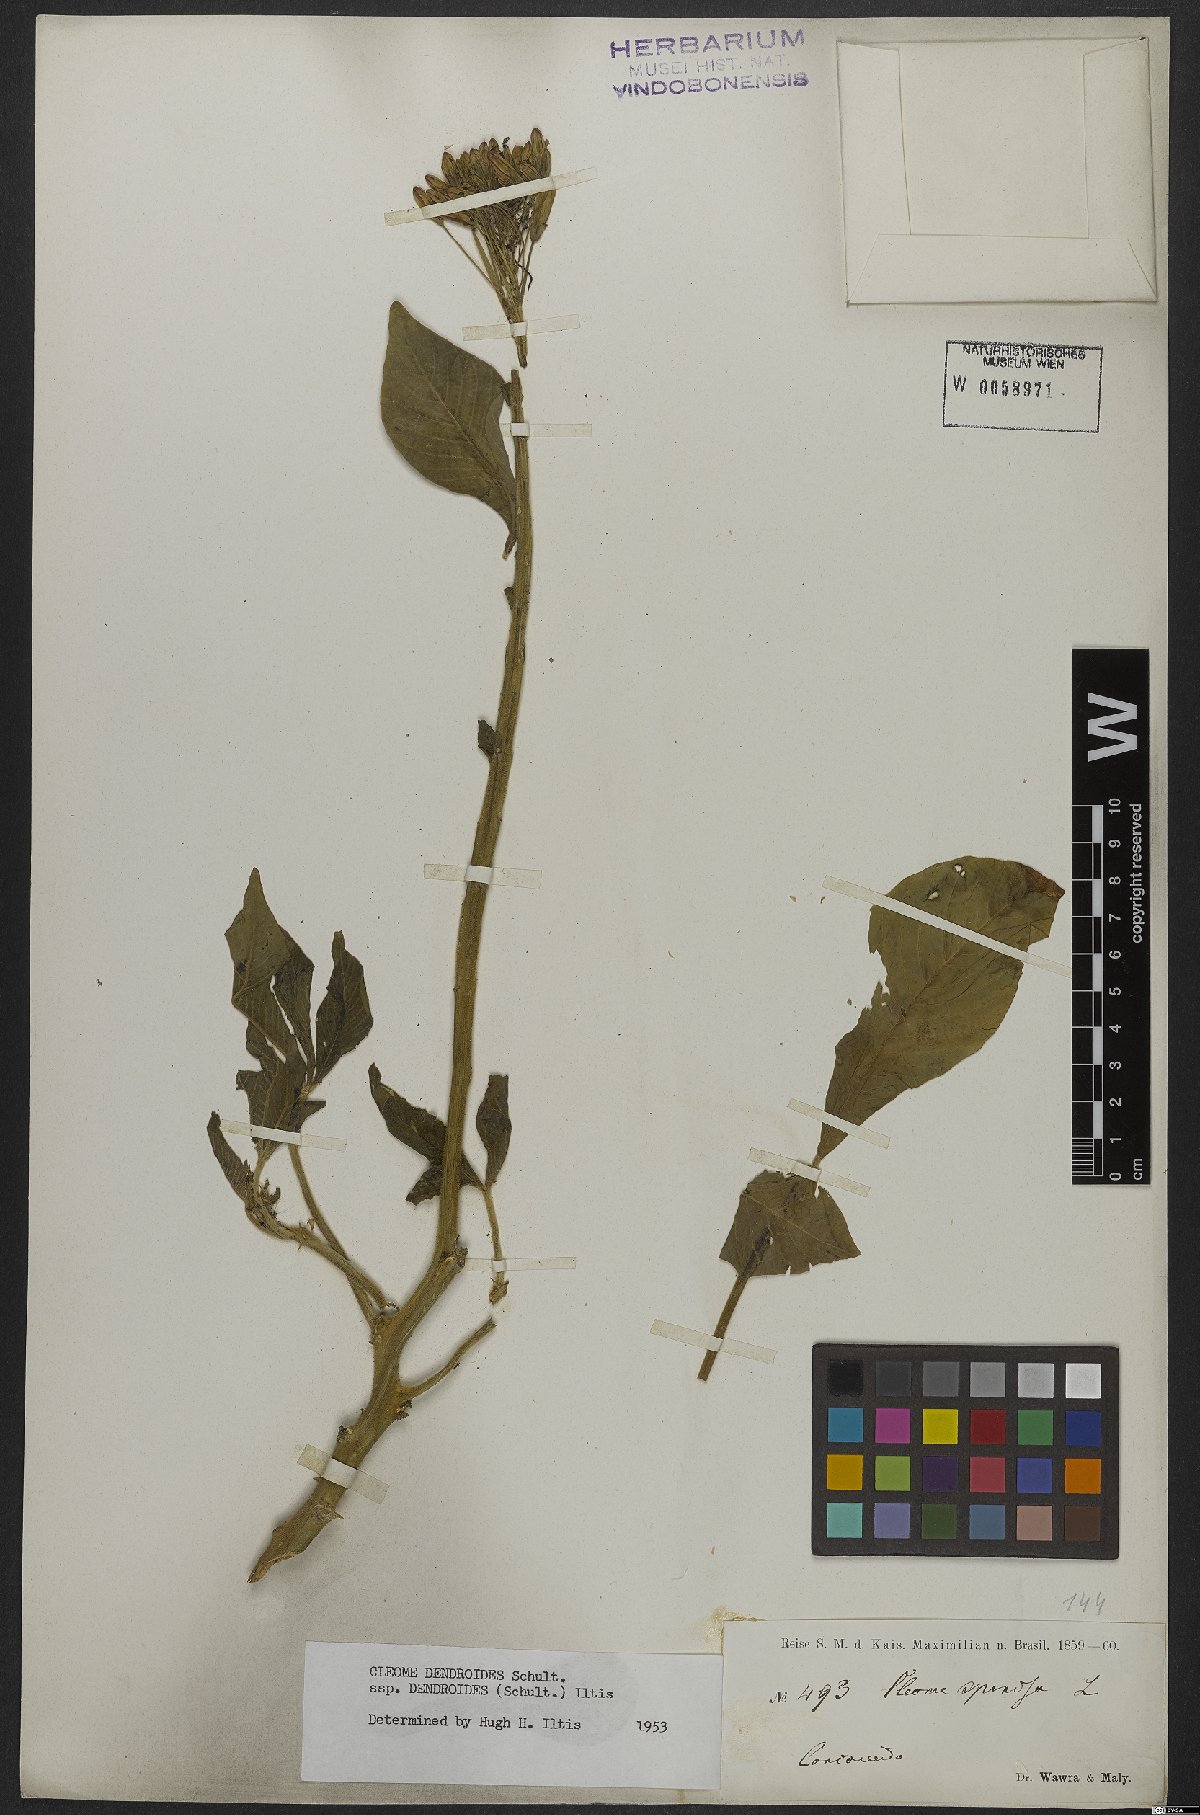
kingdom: Plantae
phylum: Tracheophyta
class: Magnoliopsida
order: Brassicales
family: Cleomaceae
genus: Tarenaya
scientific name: Tarenaya atropurpurea
